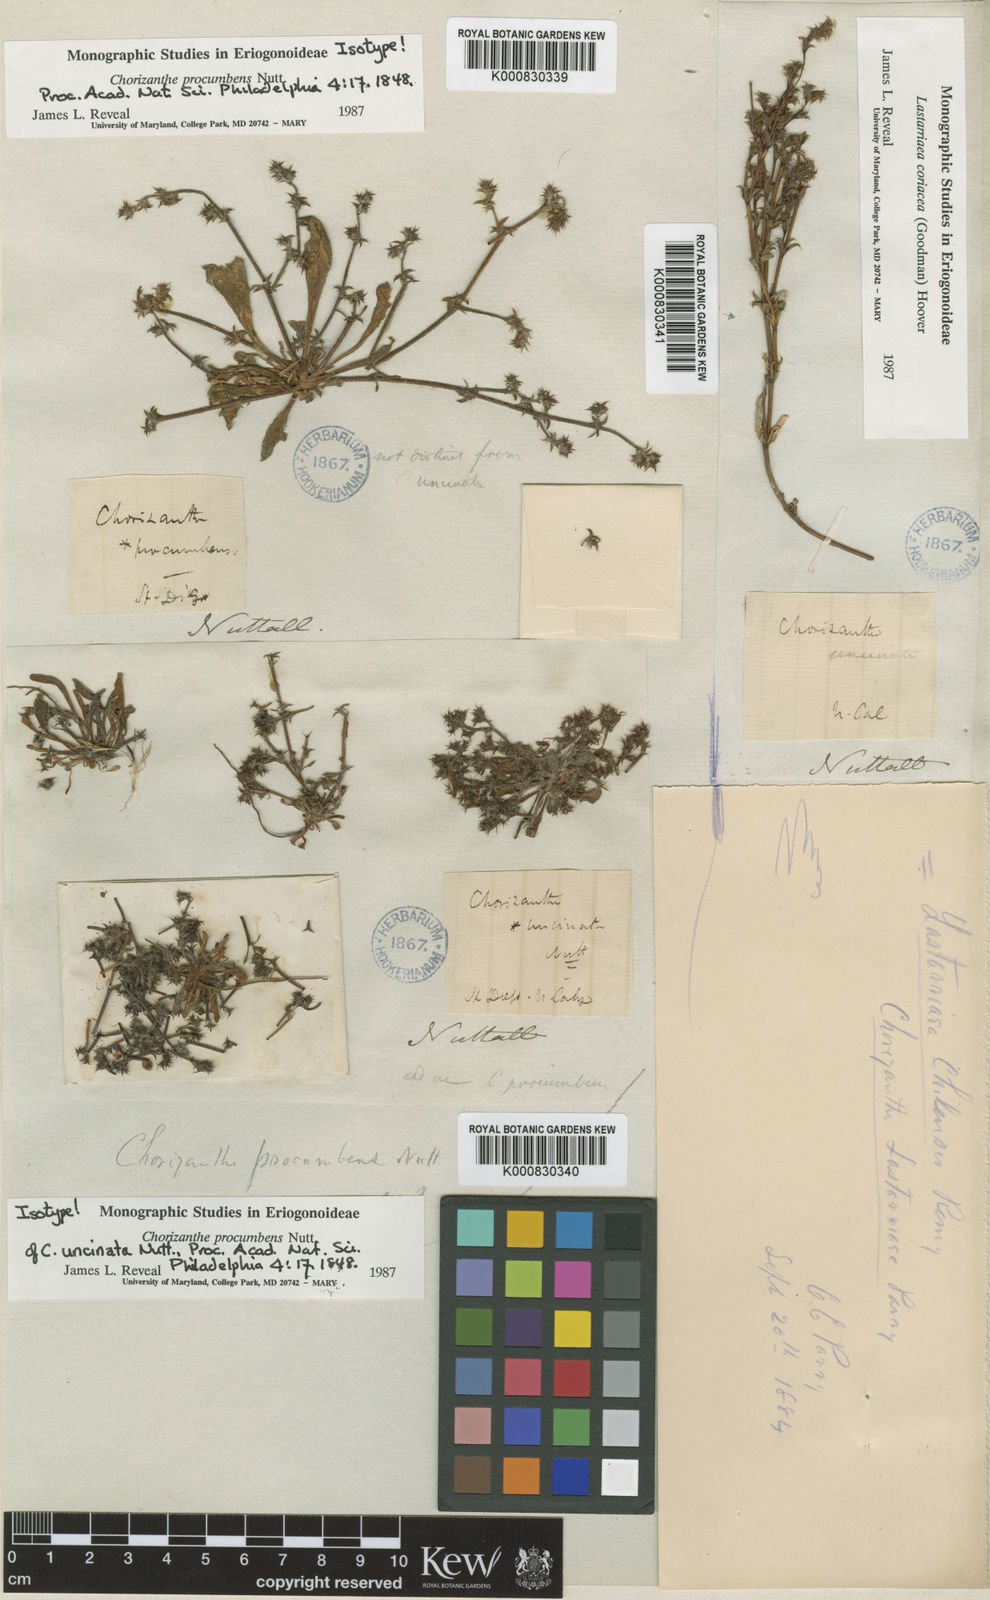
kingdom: Plantae
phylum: Tracheophyta
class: Magnoliopsida
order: Caryophyllales
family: Polygonaceae
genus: Chorizanthe
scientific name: Chorizanthe procumbens
